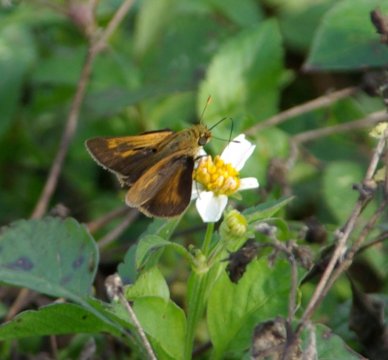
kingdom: Animalia
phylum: Arthropoda
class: Insecta
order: Lepidoptera
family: Hesperiidae
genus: Wallengrenia
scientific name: Wallengrenia otho
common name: Southern Broken-Dash
